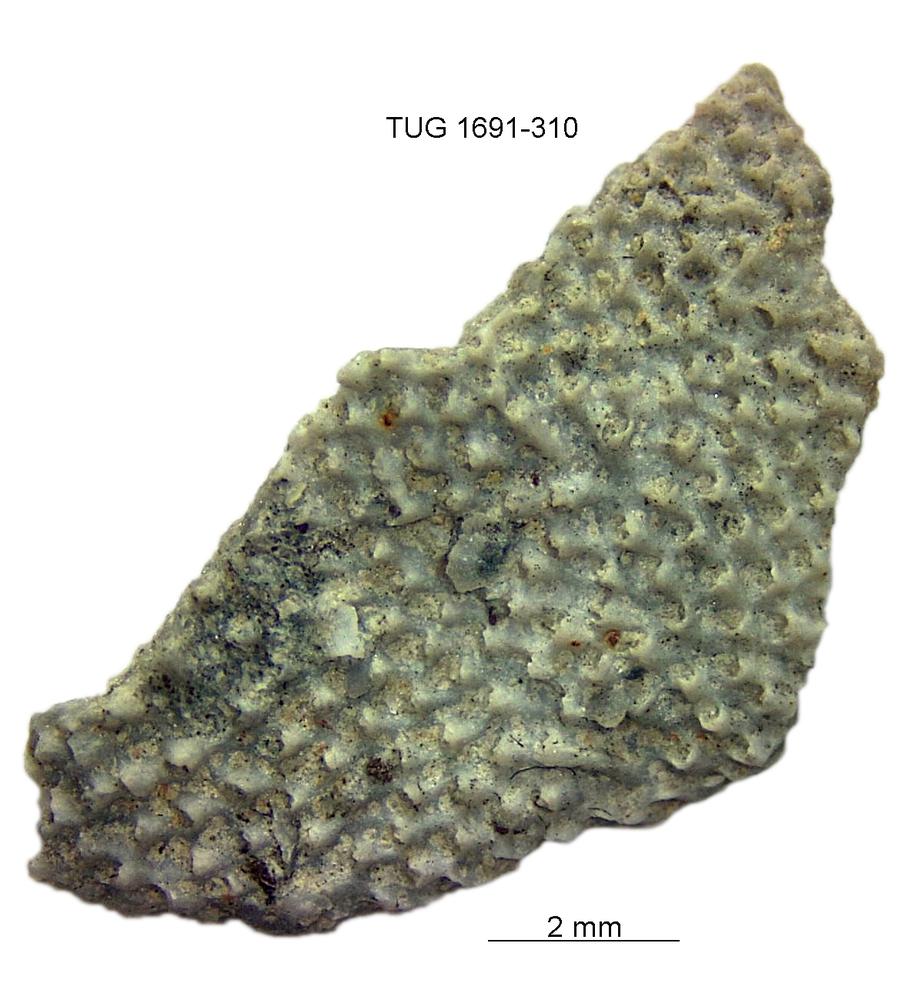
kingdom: Animalia
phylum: Bryozoa
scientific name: Bryozoa
